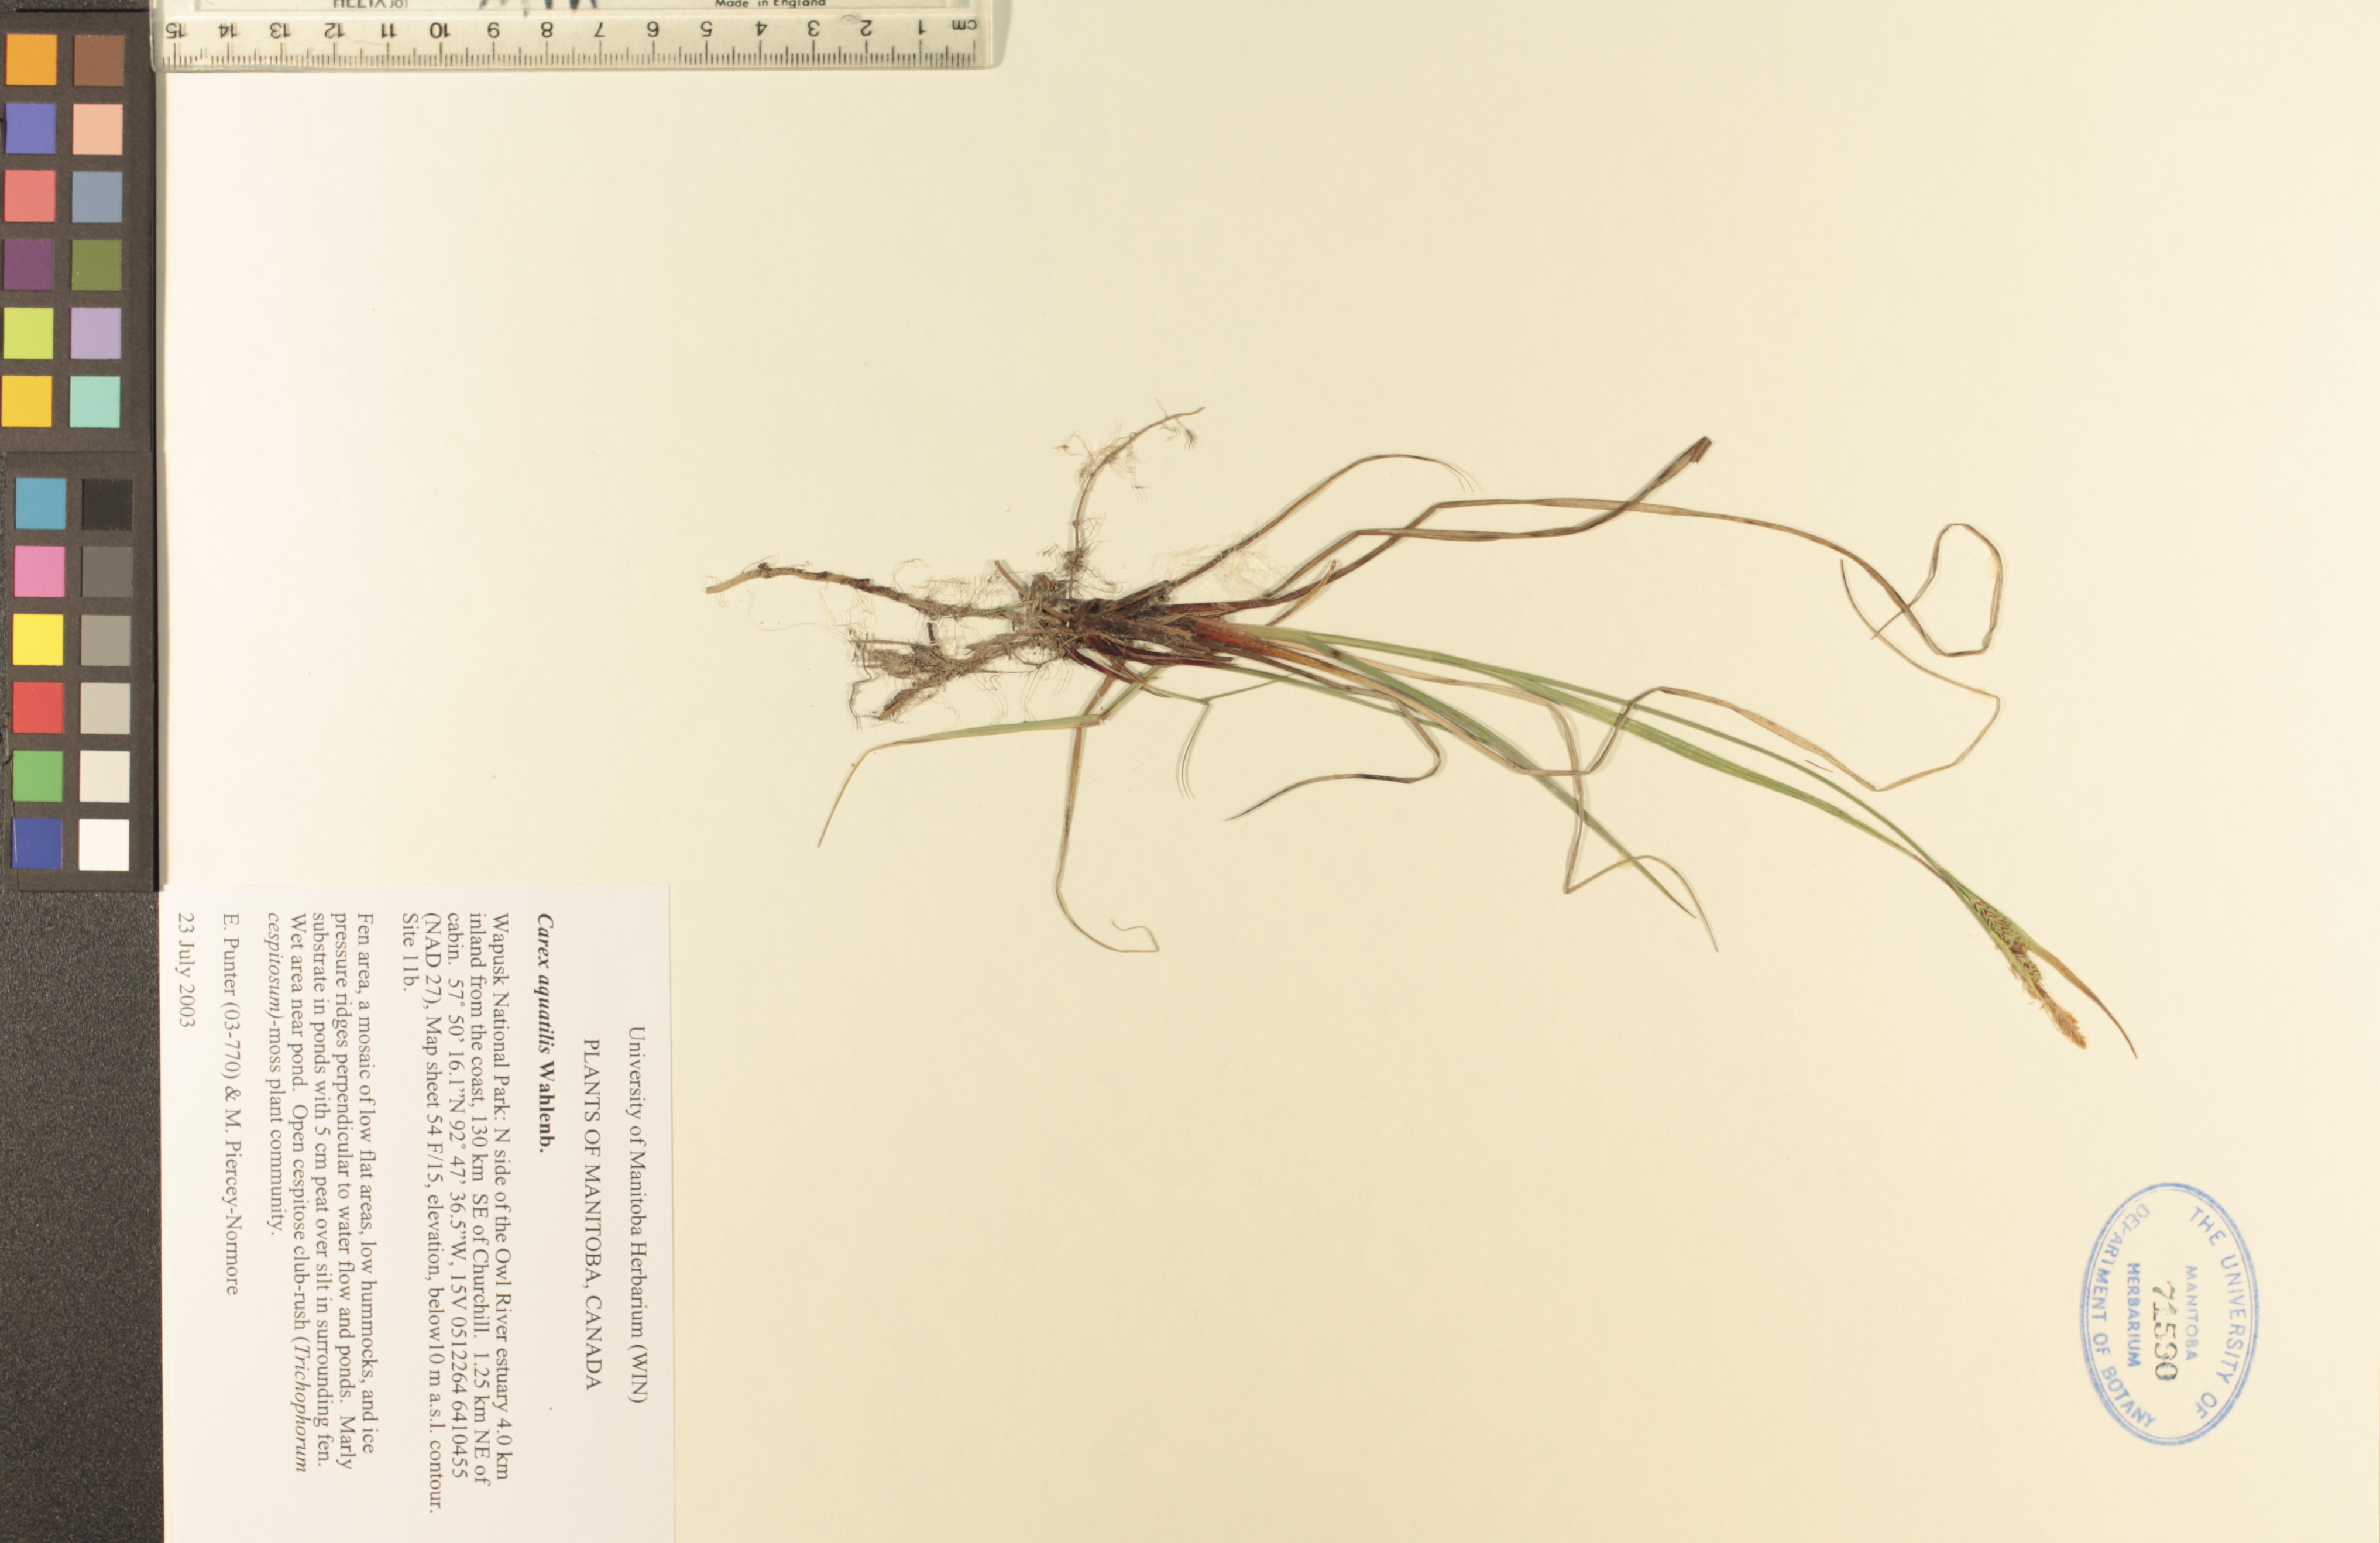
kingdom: Plantae
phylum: Tracheophyta
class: Liliopsida
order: Poales
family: Cyperaceae
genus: Carex
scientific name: Carex aquatilis
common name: Water sedge
